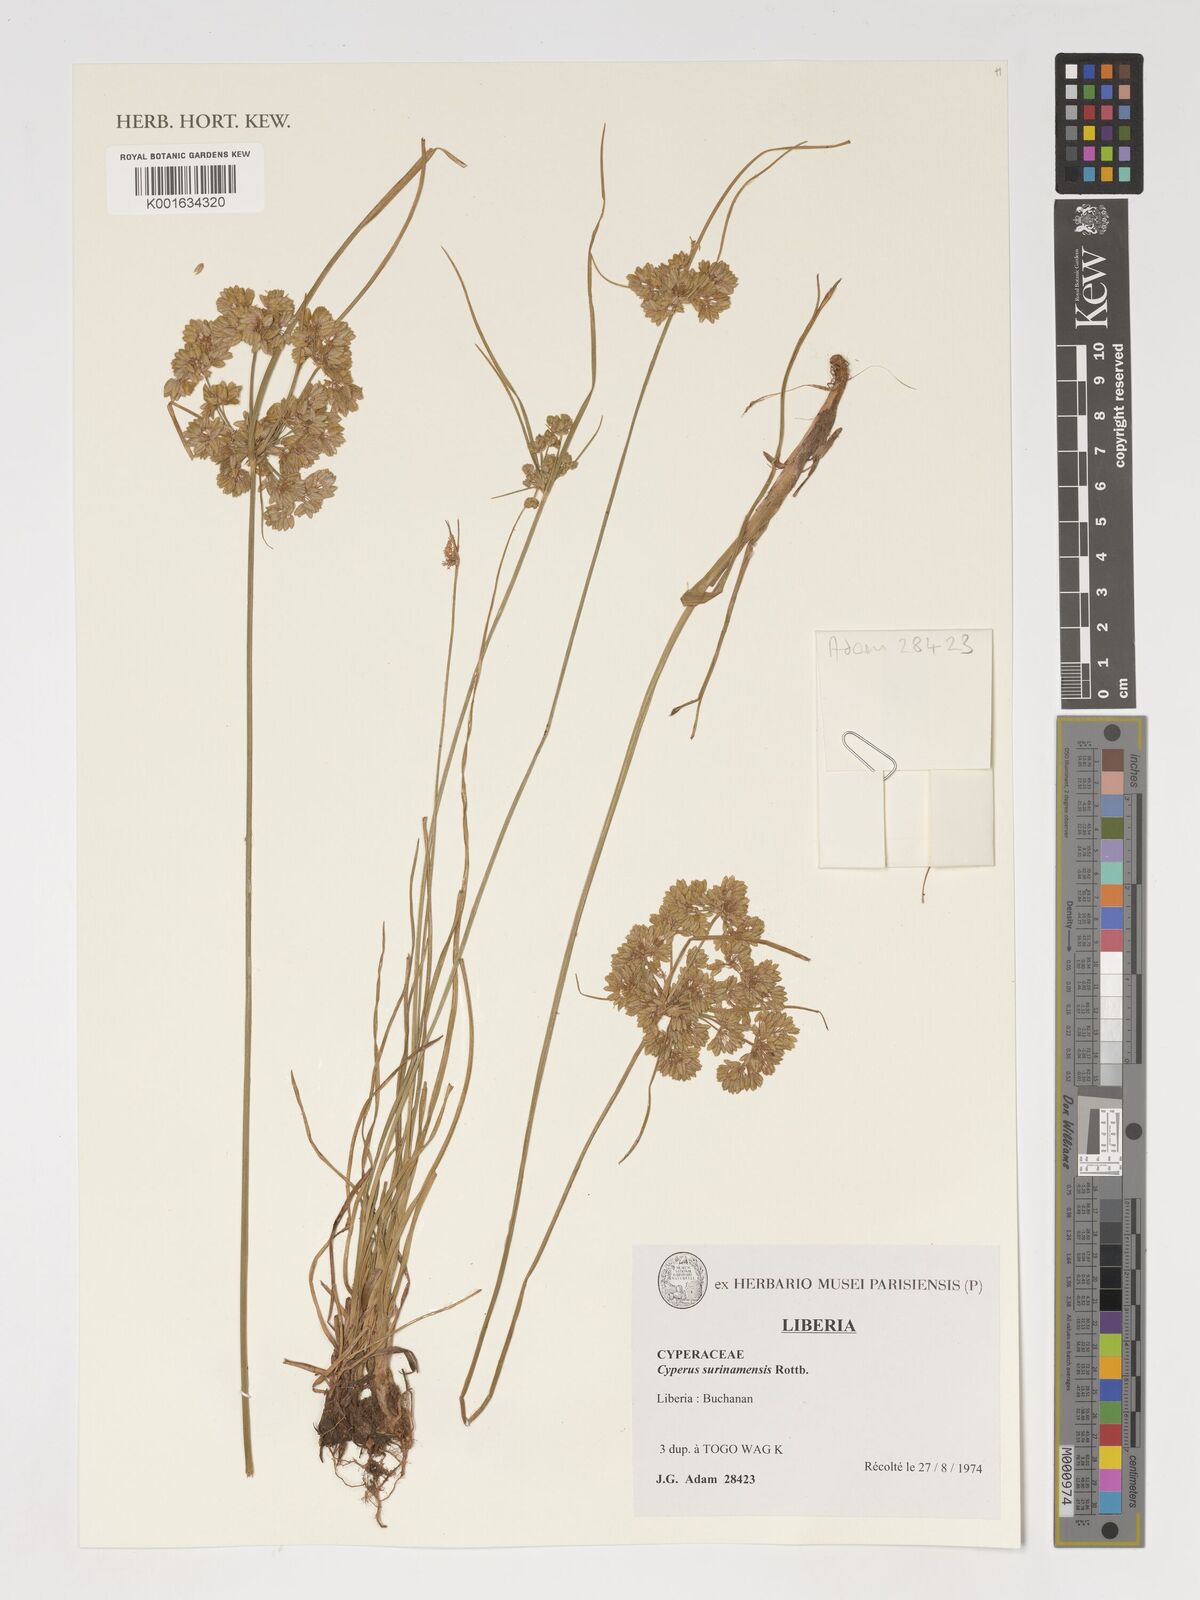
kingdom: Plantae
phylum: Tracheophyta
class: Liliopsida
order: Poales
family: Cyperaceae
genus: Cyperus
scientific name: Cyperus surinamensis
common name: Tropical flat sedge
